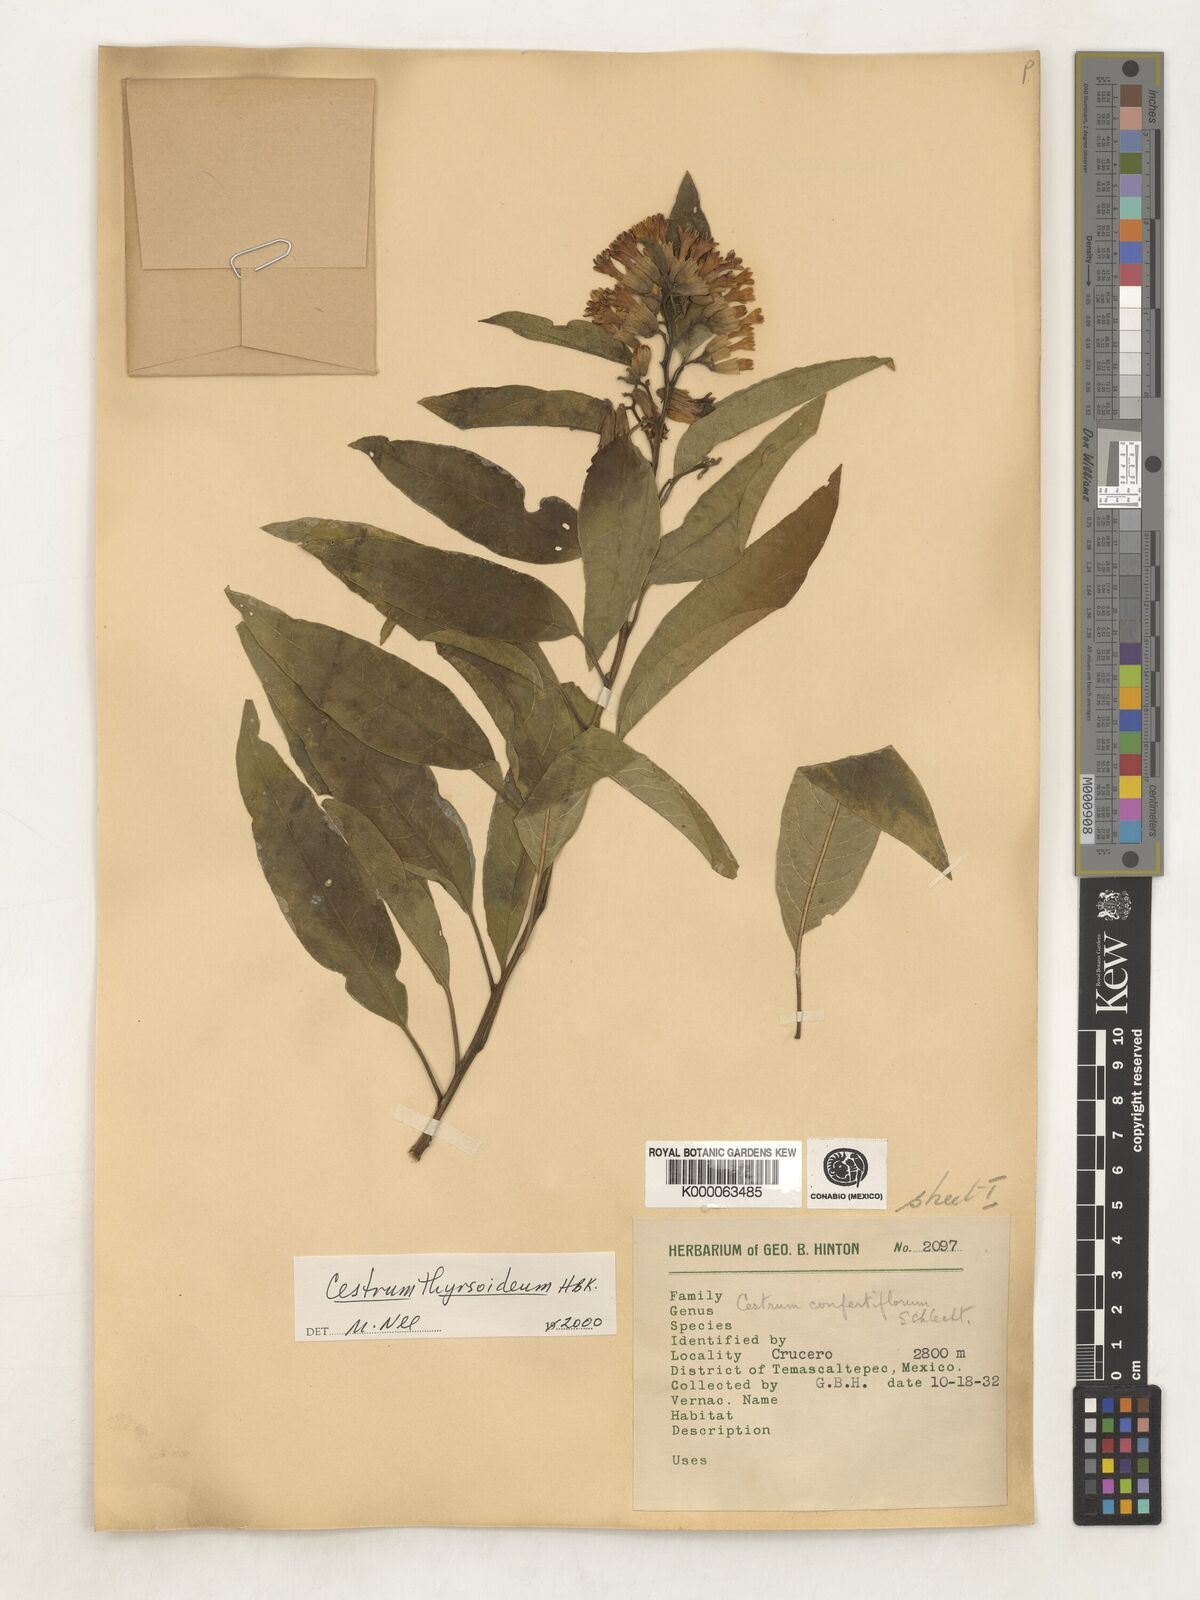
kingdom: Plantae
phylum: Tracheophyta
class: Magnoliopsida
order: Solanales
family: Solanaceae
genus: Cestrum
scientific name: Cestrum
